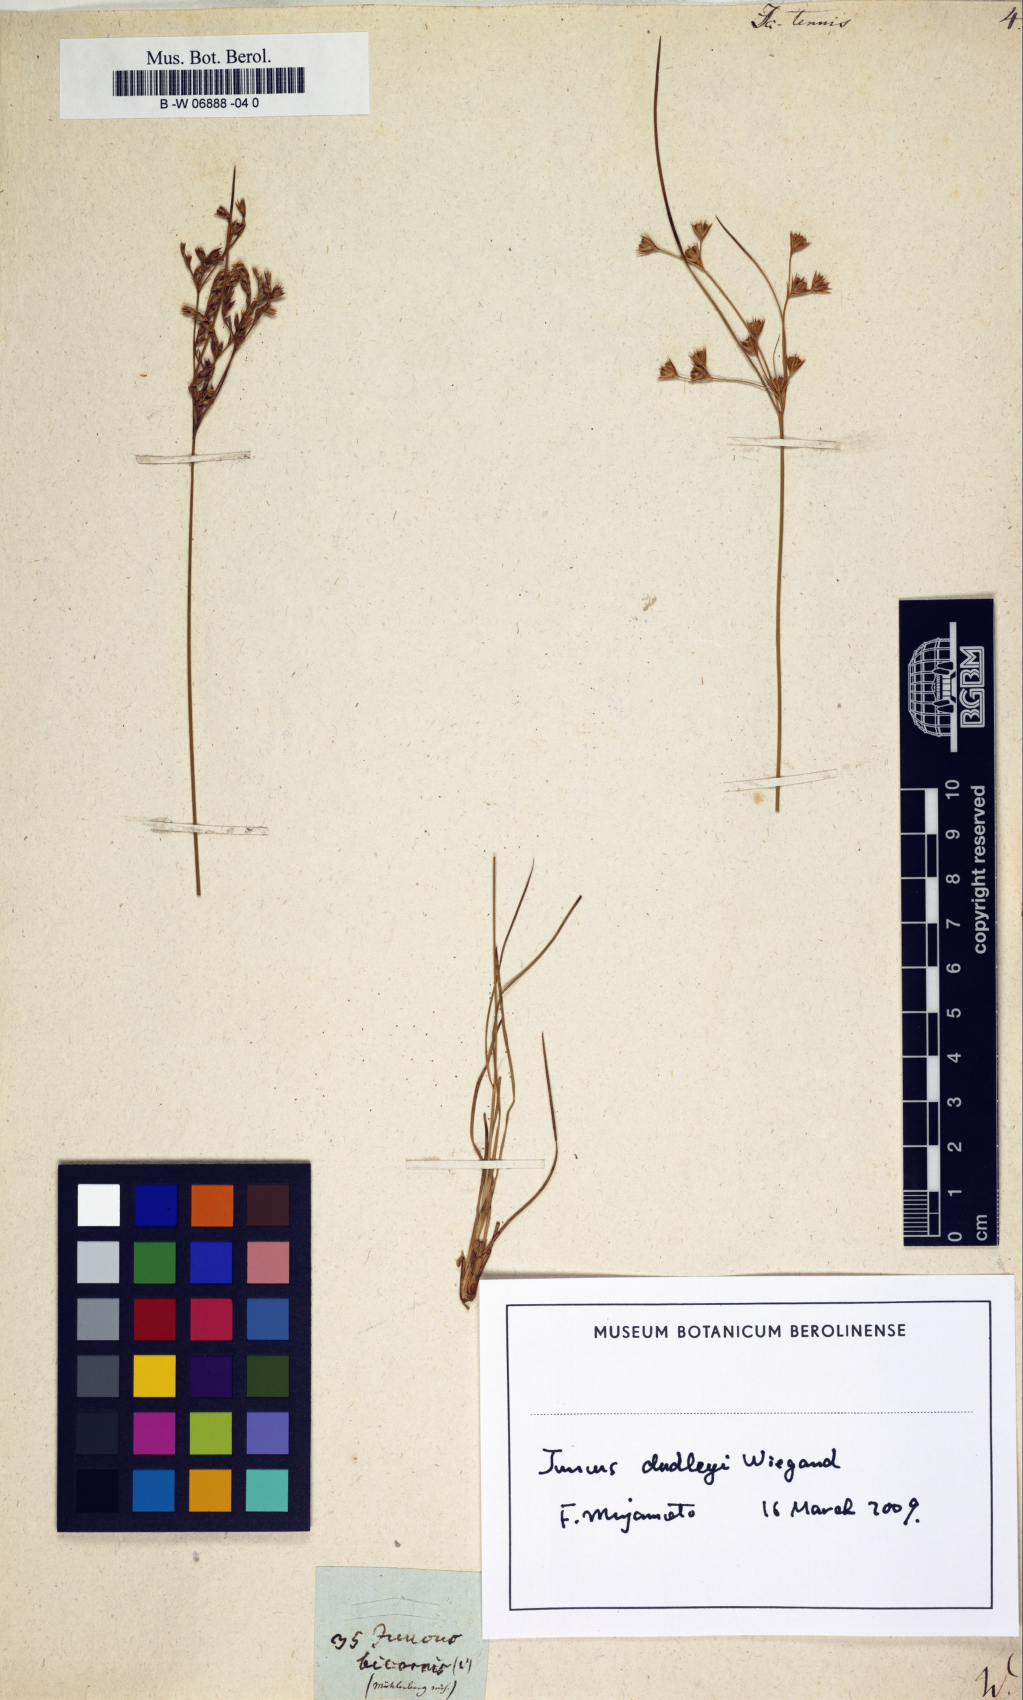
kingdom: Plantae
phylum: Tracheophyta
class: Liliopsida
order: Poales
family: Juncaceae
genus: Juncus
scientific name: Juncus tenuis
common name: Slender rush
